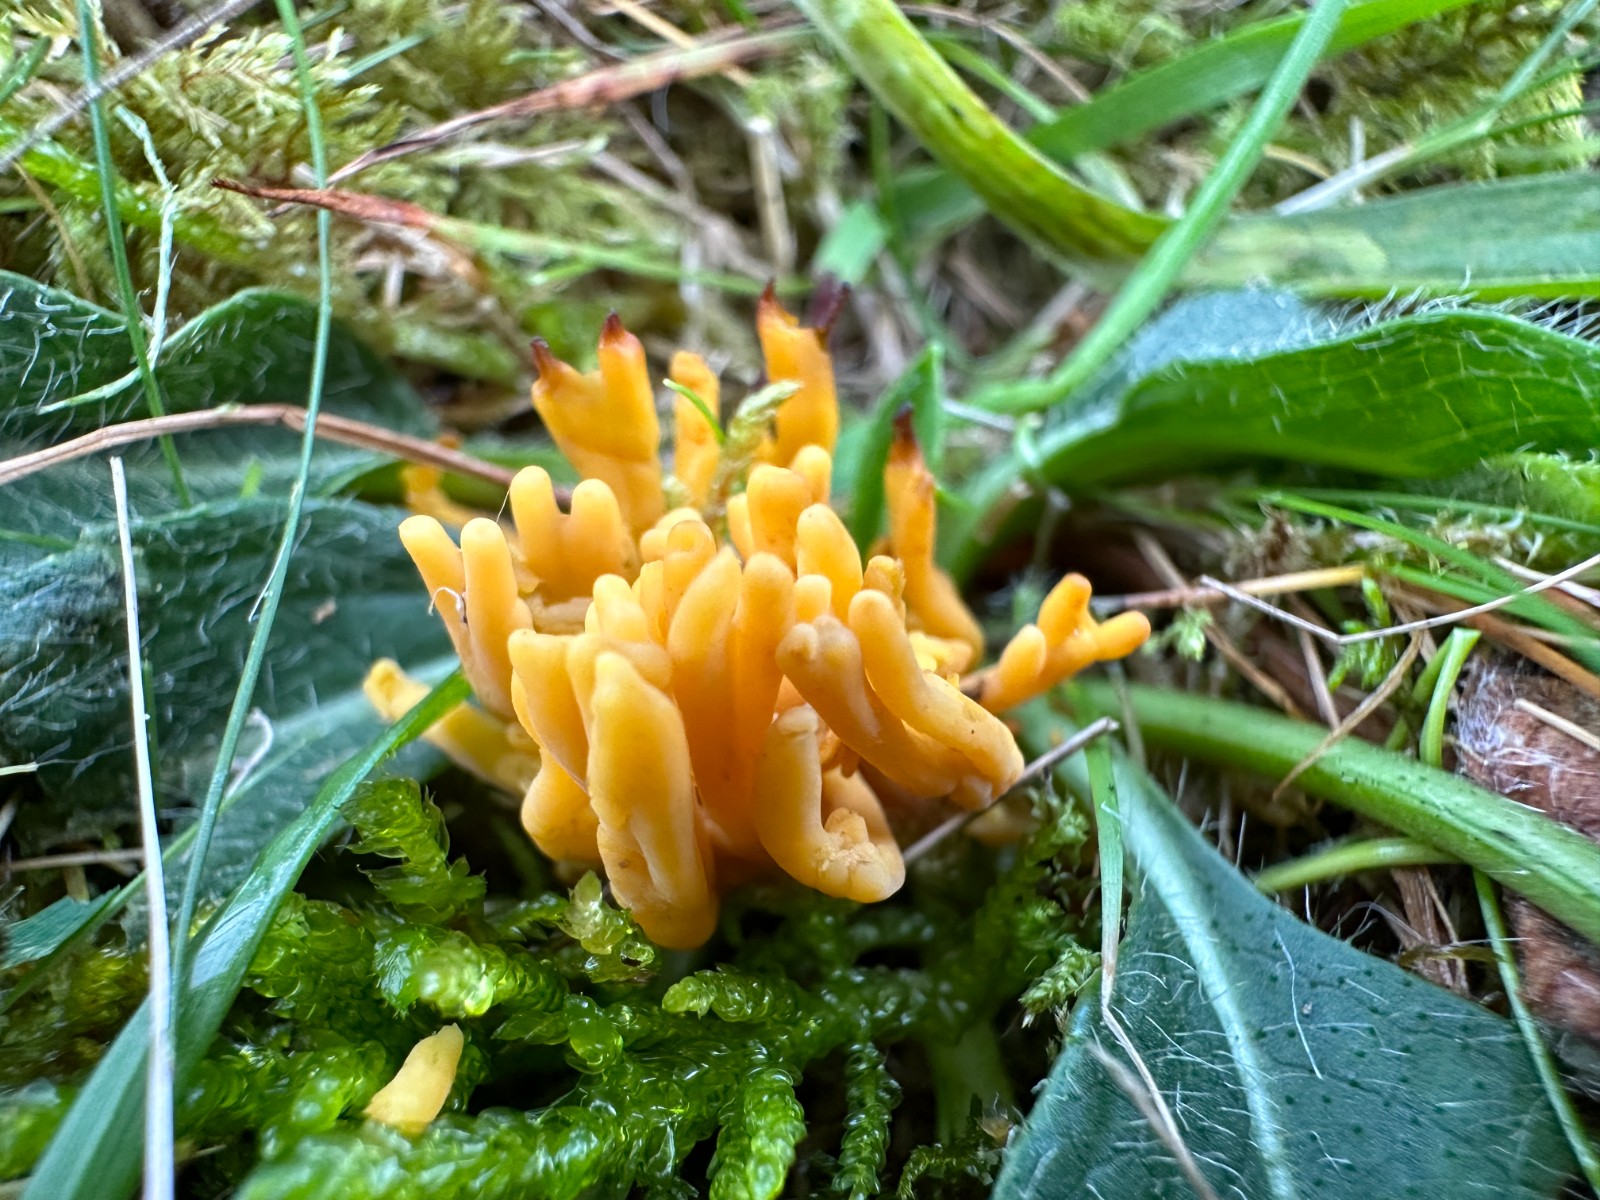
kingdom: Fungi
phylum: Basidiomycota
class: Agaricomycetes
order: Agaricales
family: Clavariaceae
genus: Clavulinopsis
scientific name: Clavulinopsis corniculata
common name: eng-køllesvamp
